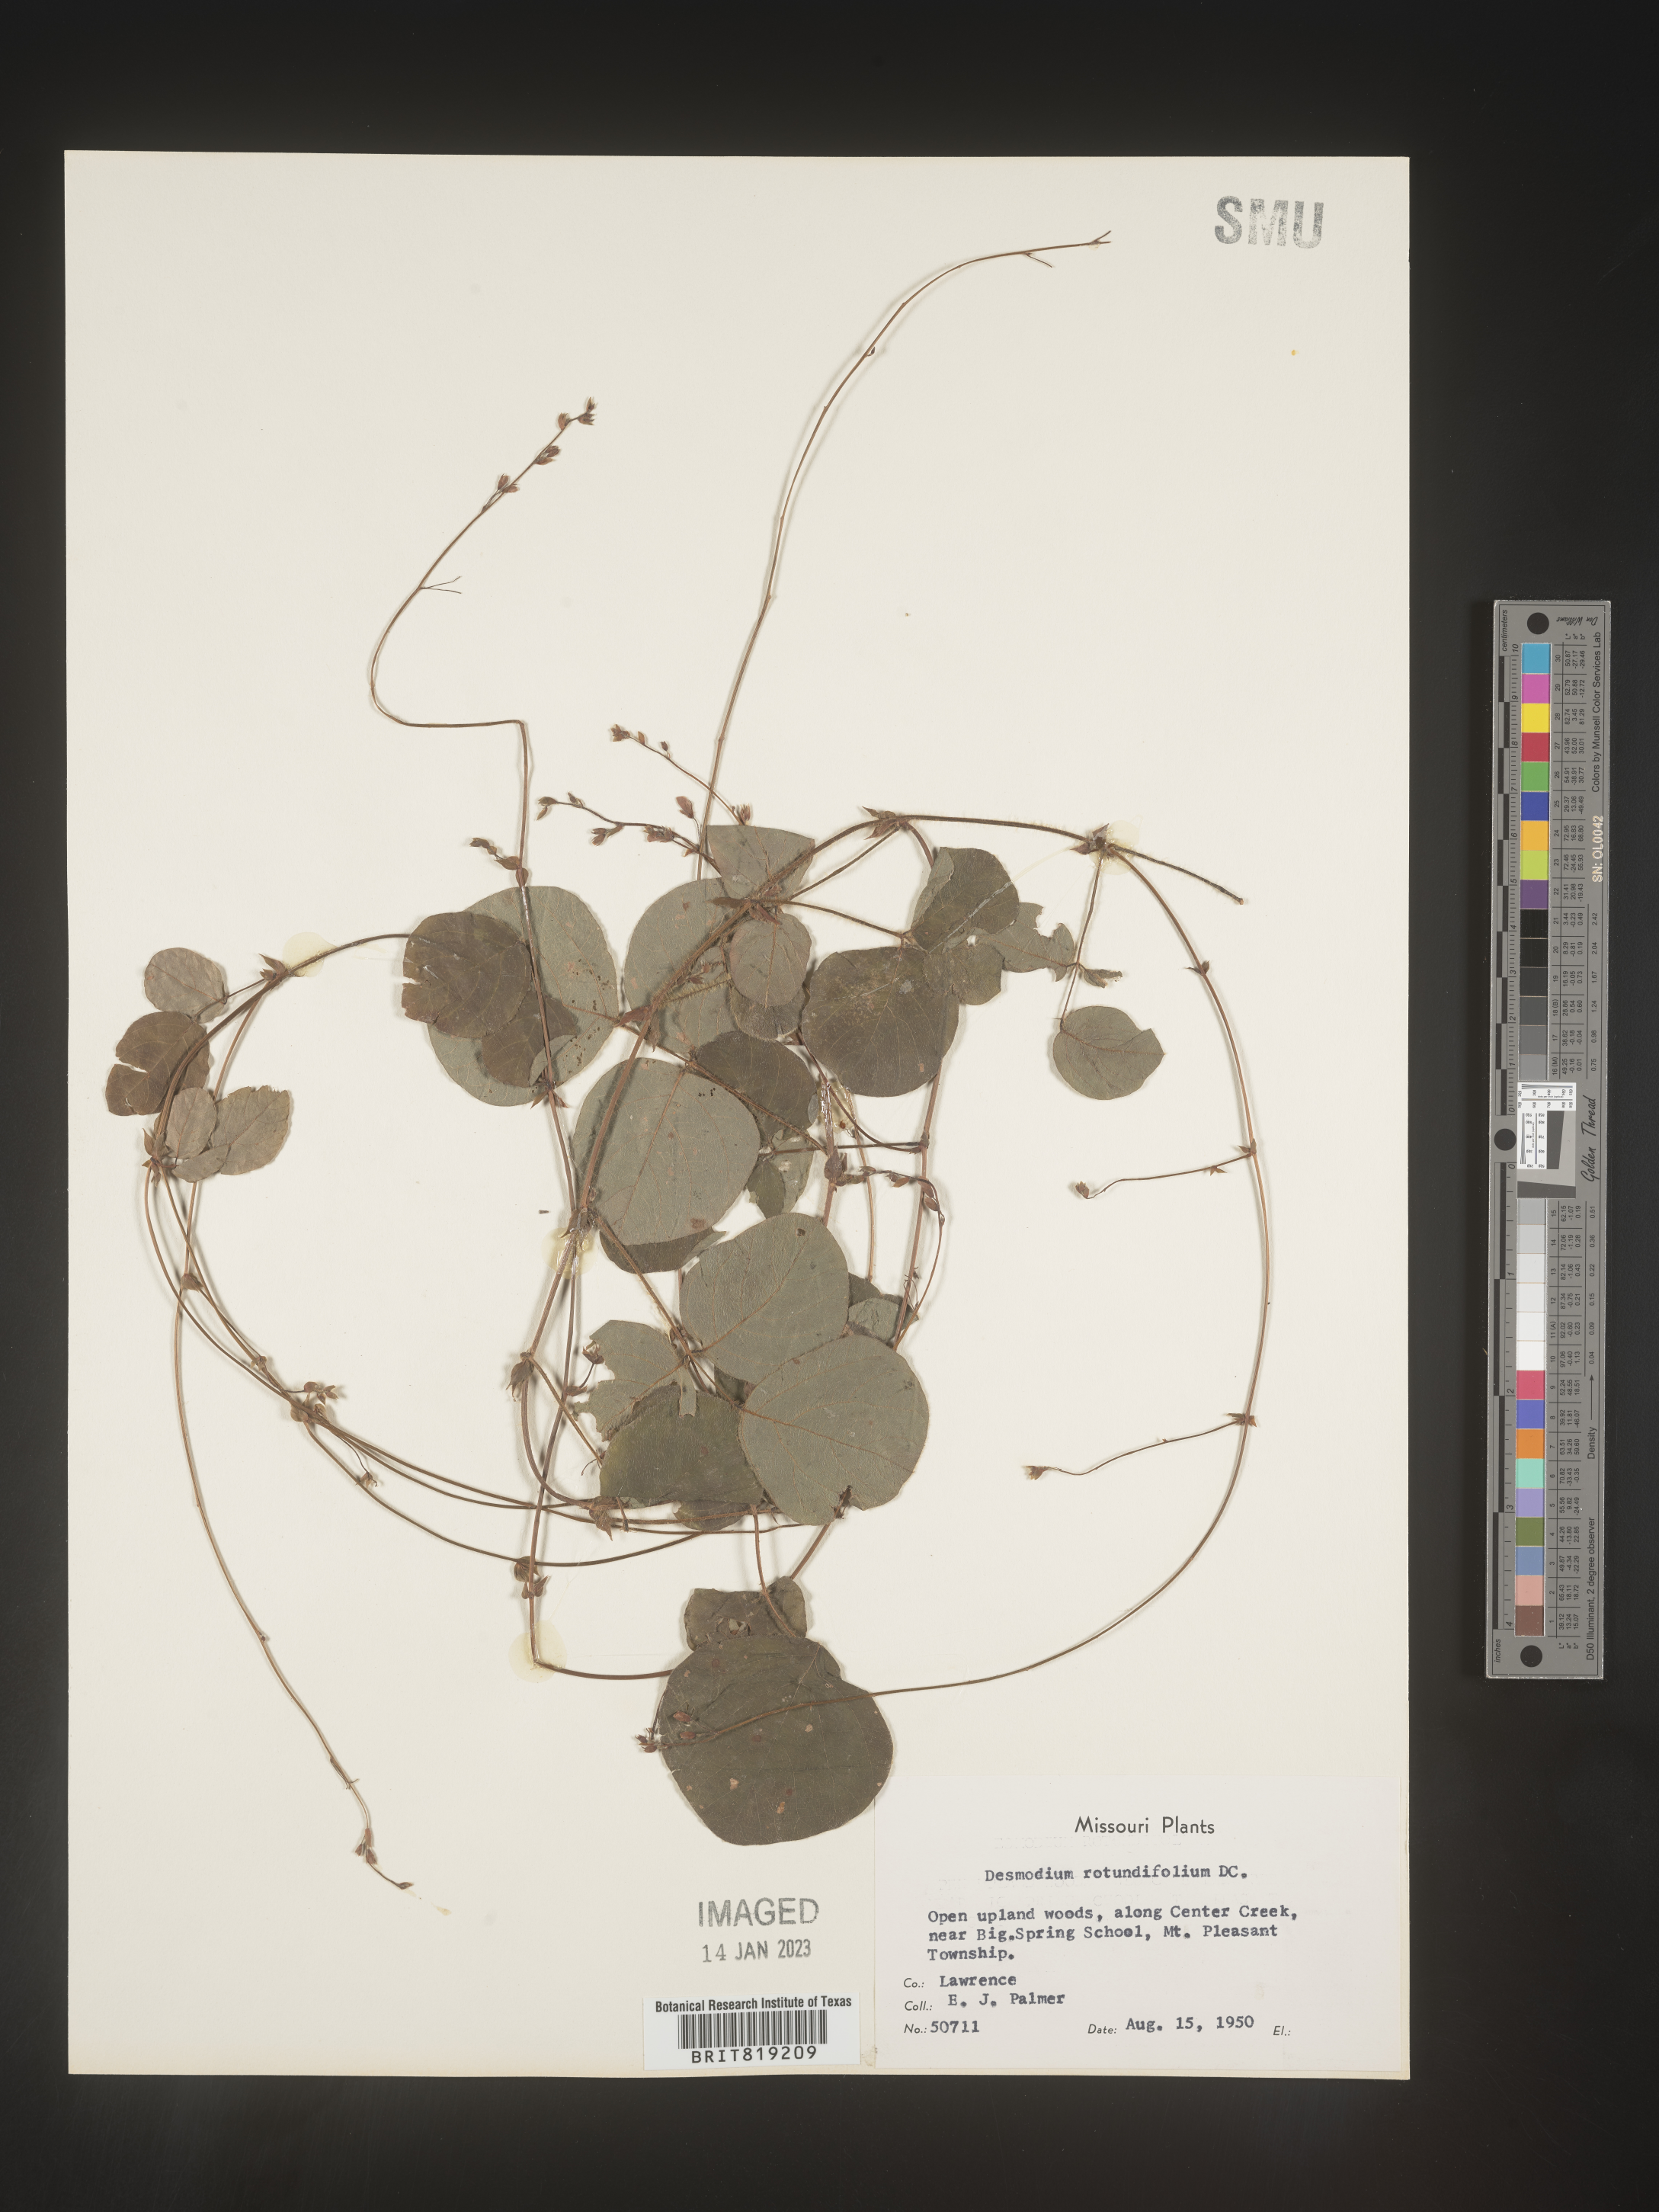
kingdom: Plantae
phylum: Tracheophyta
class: Magnoliopsida
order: Fabales
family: Fabaceae
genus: Desmodium
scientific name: Desmodium rotundifolium
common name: Dollarleaf
